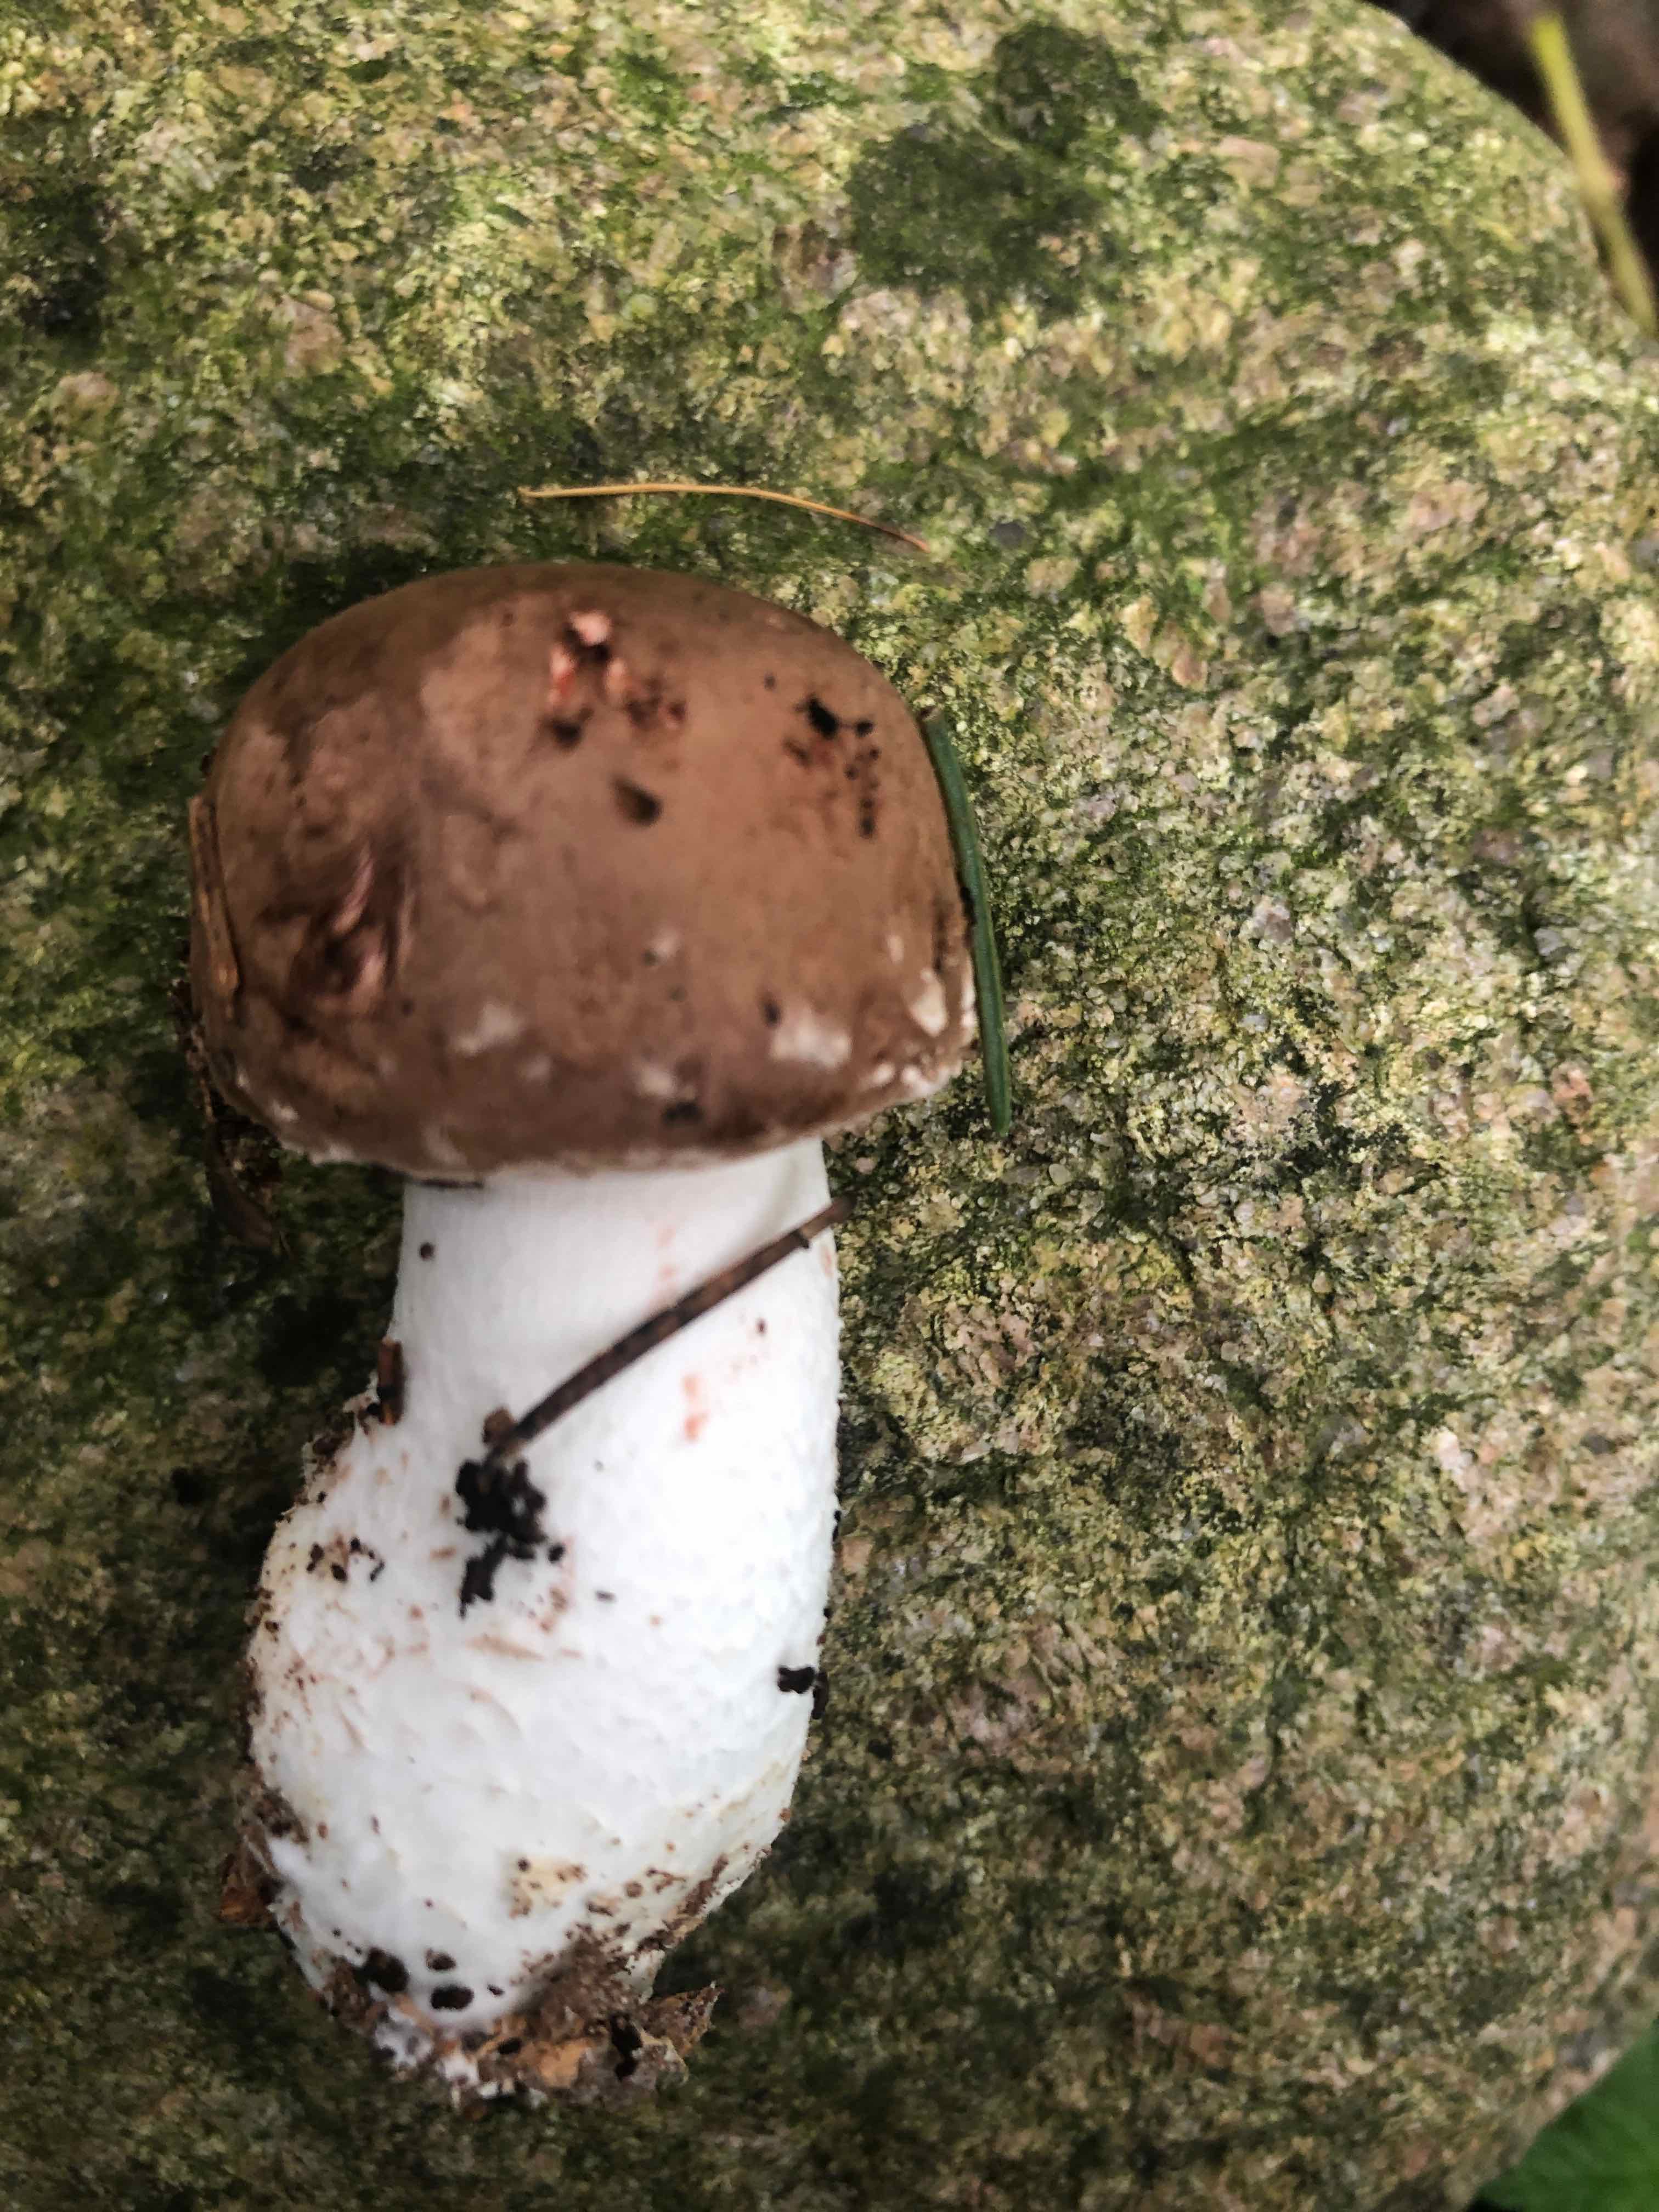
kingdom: Fungi
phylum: Basidiomycota
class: Agaricomycetes
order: Agaricales
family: Agaricaceae
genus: Agaricus
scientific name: Agaricus
